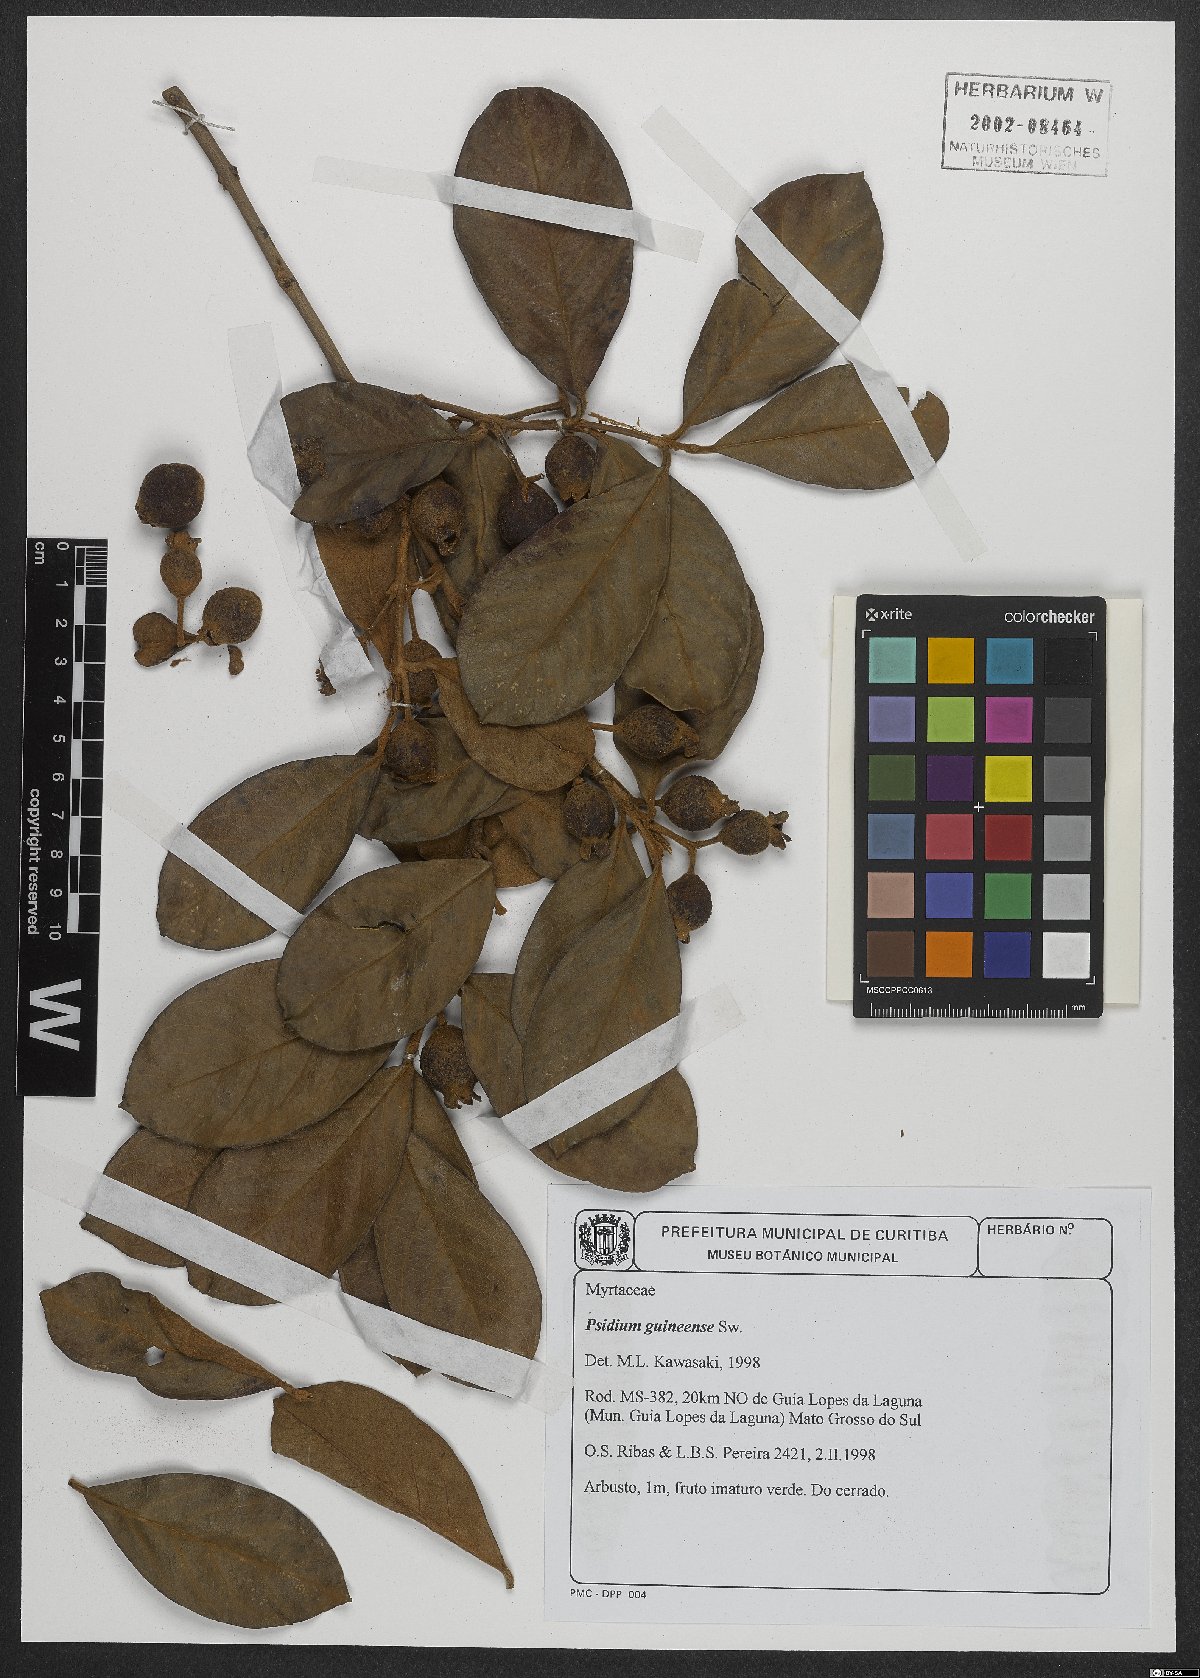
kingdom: Plantae
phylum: Tracheophyta
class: Magnoliopsida
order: Myrtales
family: Myrtaceae
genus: Psidium
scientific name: Psidium guineense
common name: Brazilian guava
